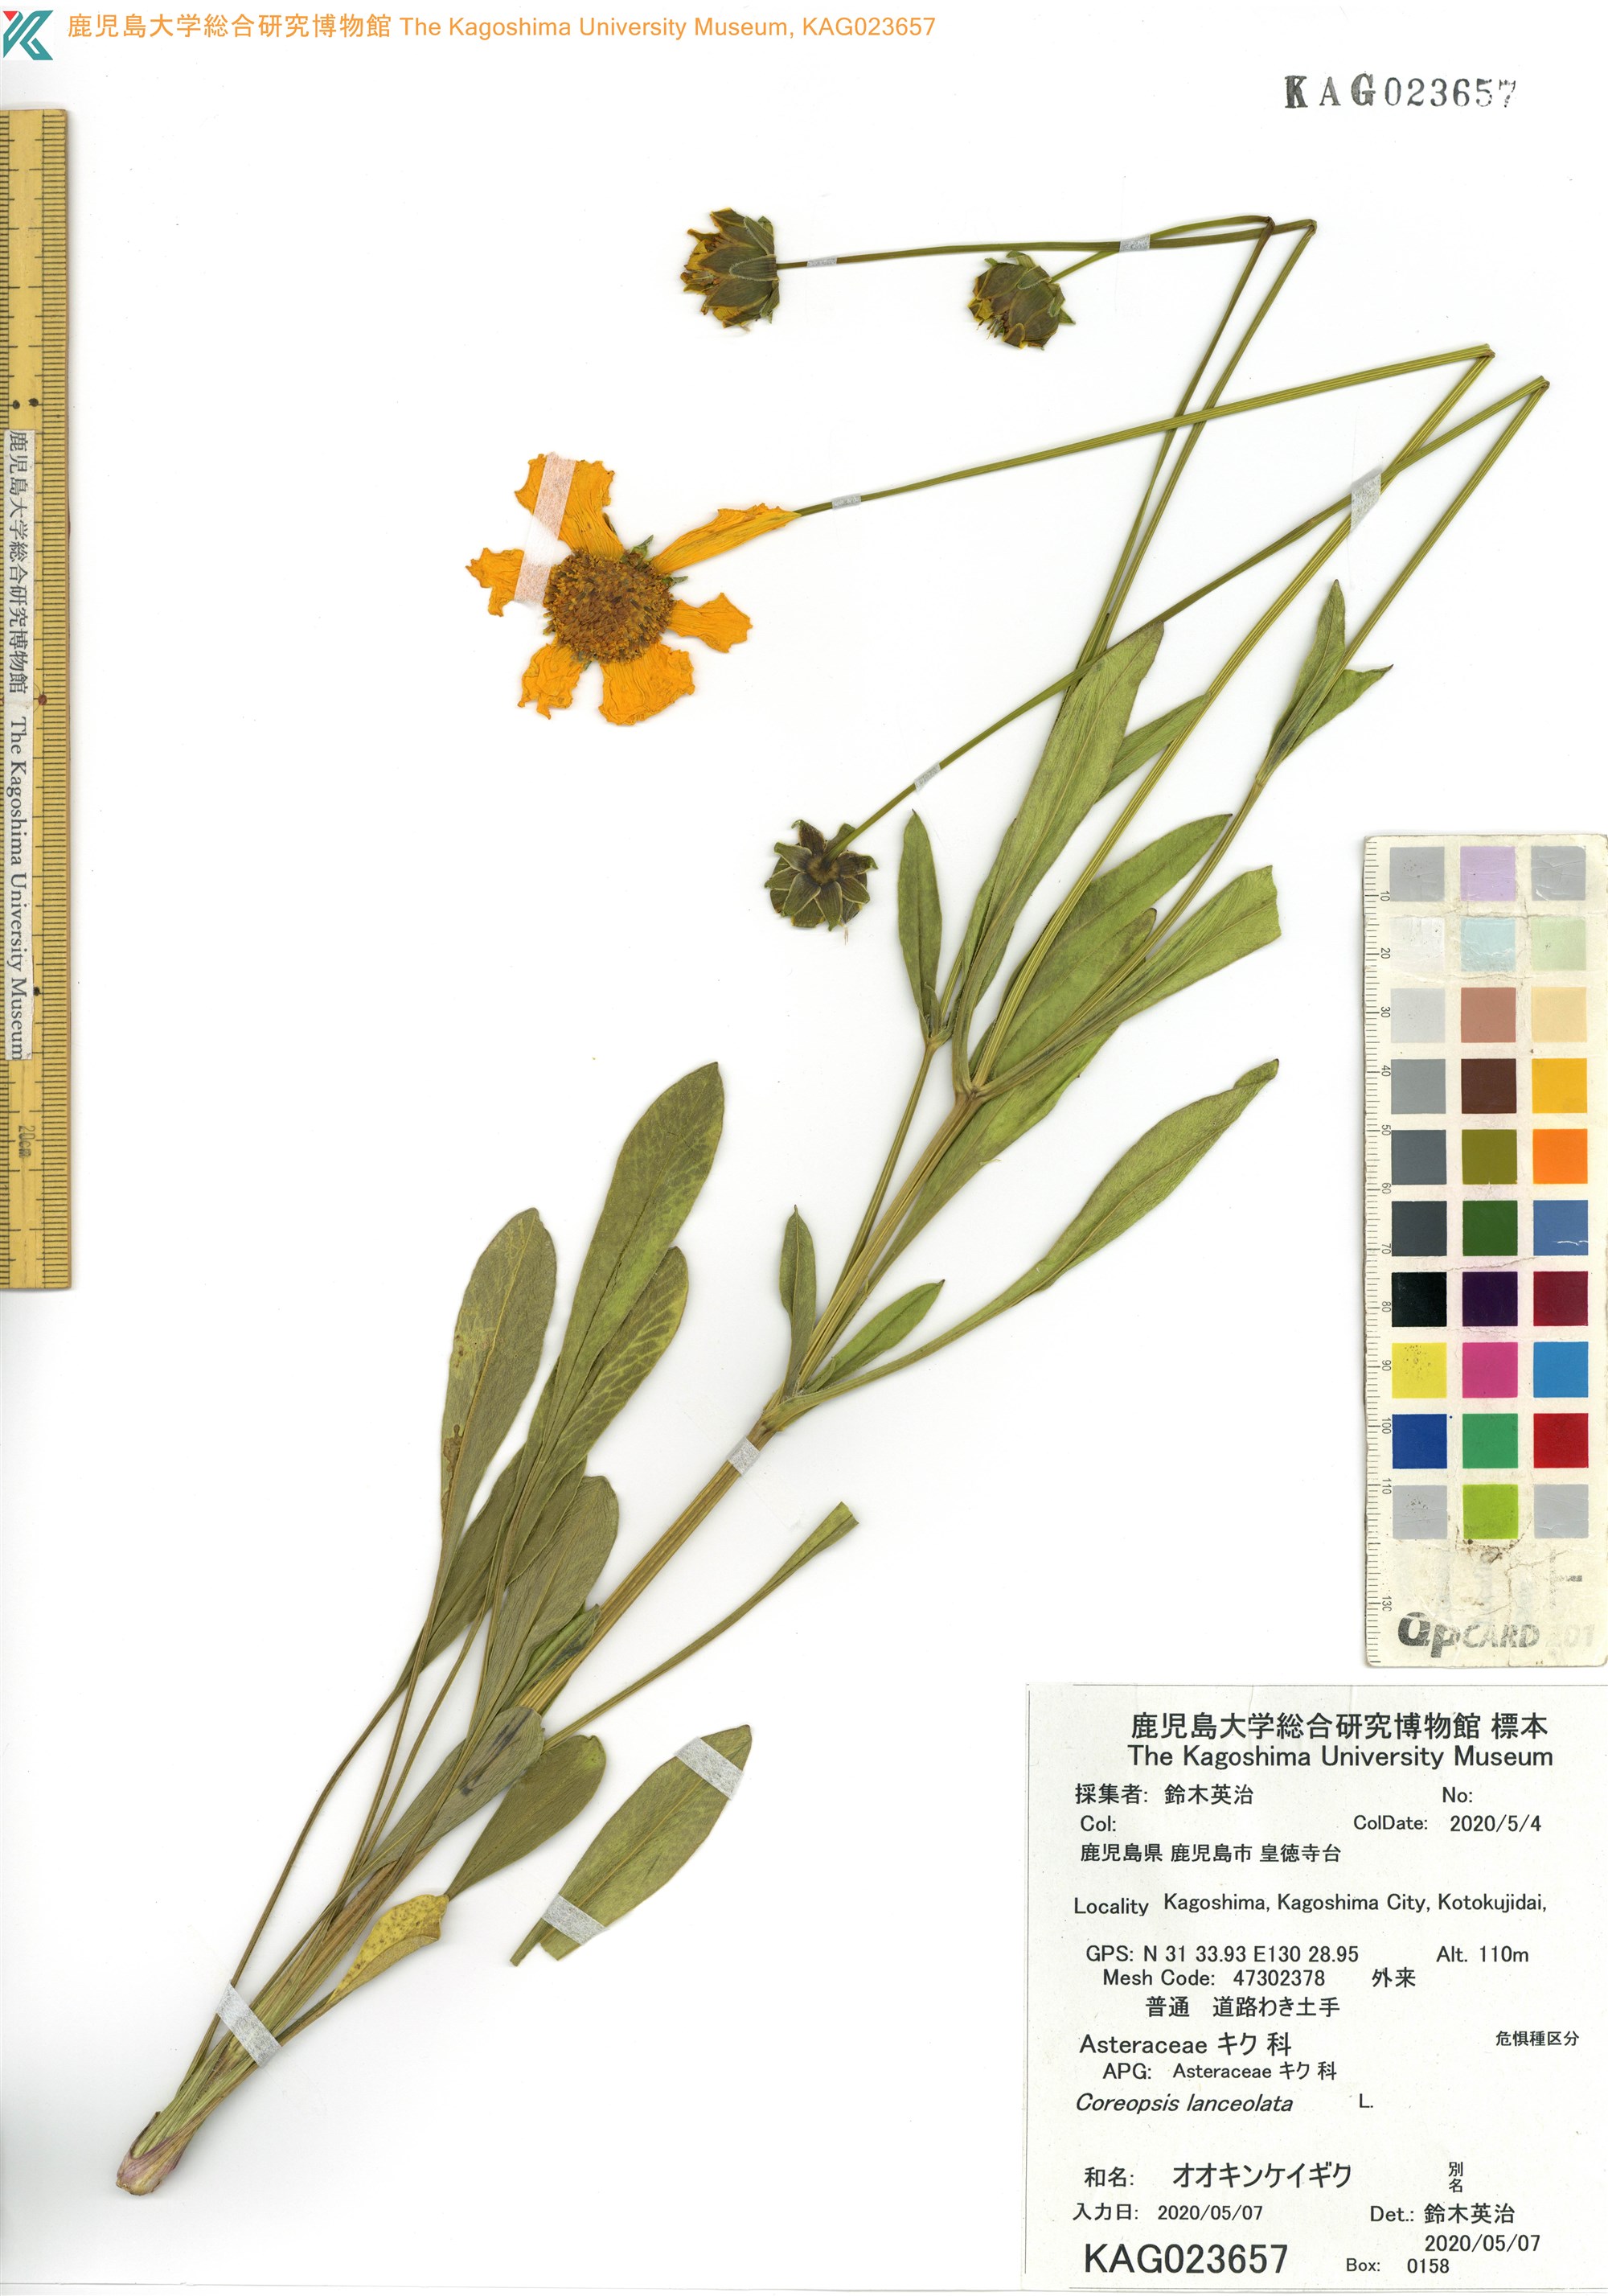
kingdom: Plantae
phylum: Tracheophyta
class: Magnoliopsida
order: Asterales
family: Asteraceae
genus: Coreopsis
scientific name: Coreopsis lanceolata
